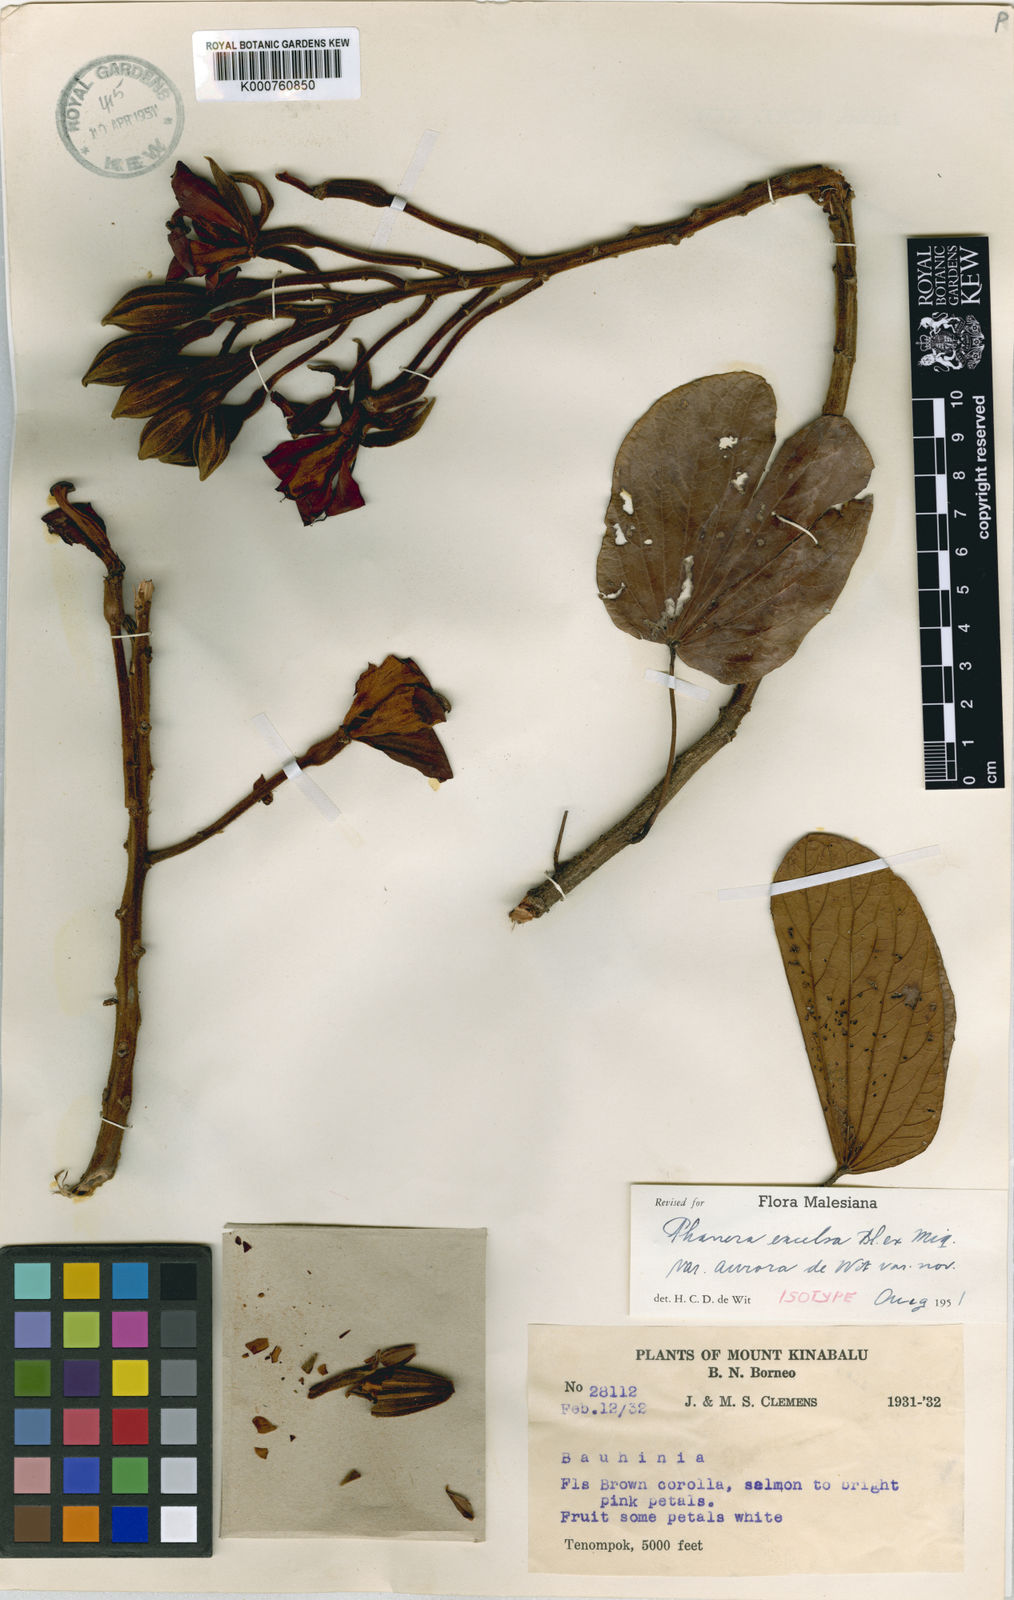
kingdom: Plantae
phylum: Tracheophyta
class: Magnoliopsida
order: Fabales
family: Fabaceae
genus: Phanera
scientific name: Phanera excelsa
